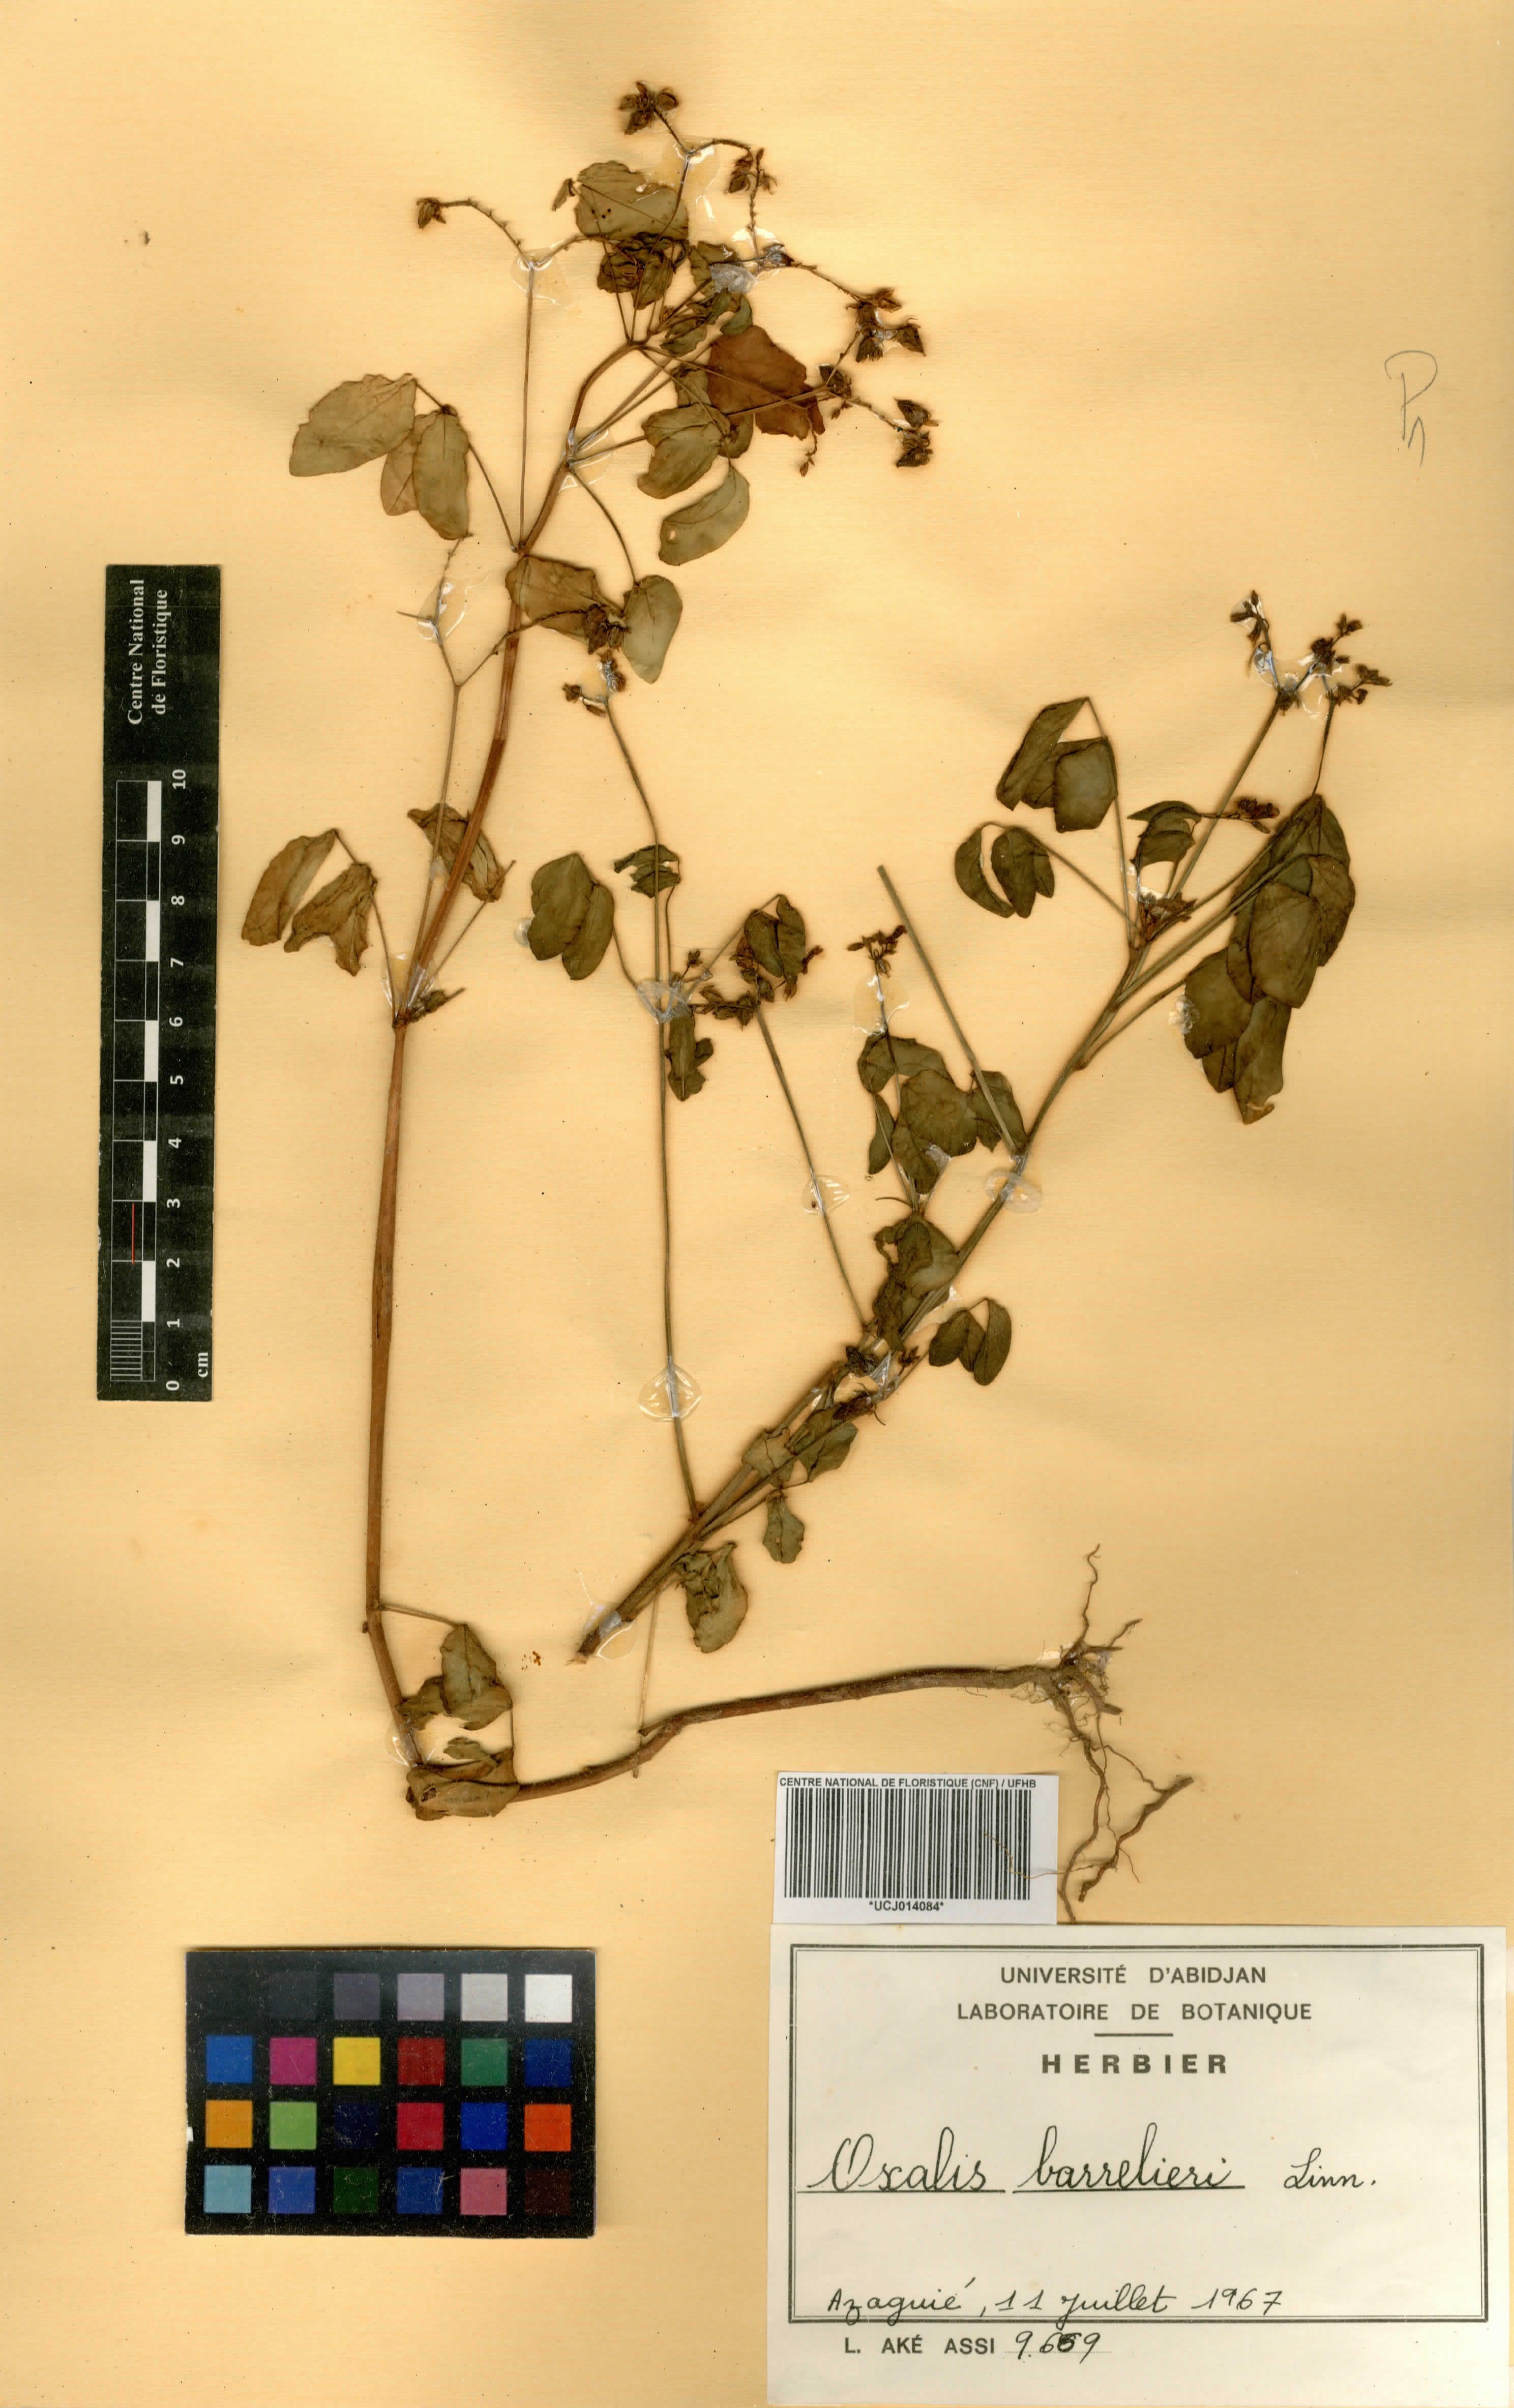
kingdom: Plantae
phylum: Tracheophyta
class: Magnoliopsida
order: Oxalidales
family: Oxalidaceae
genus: Oxalis
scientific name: Oxalis barrelieri
